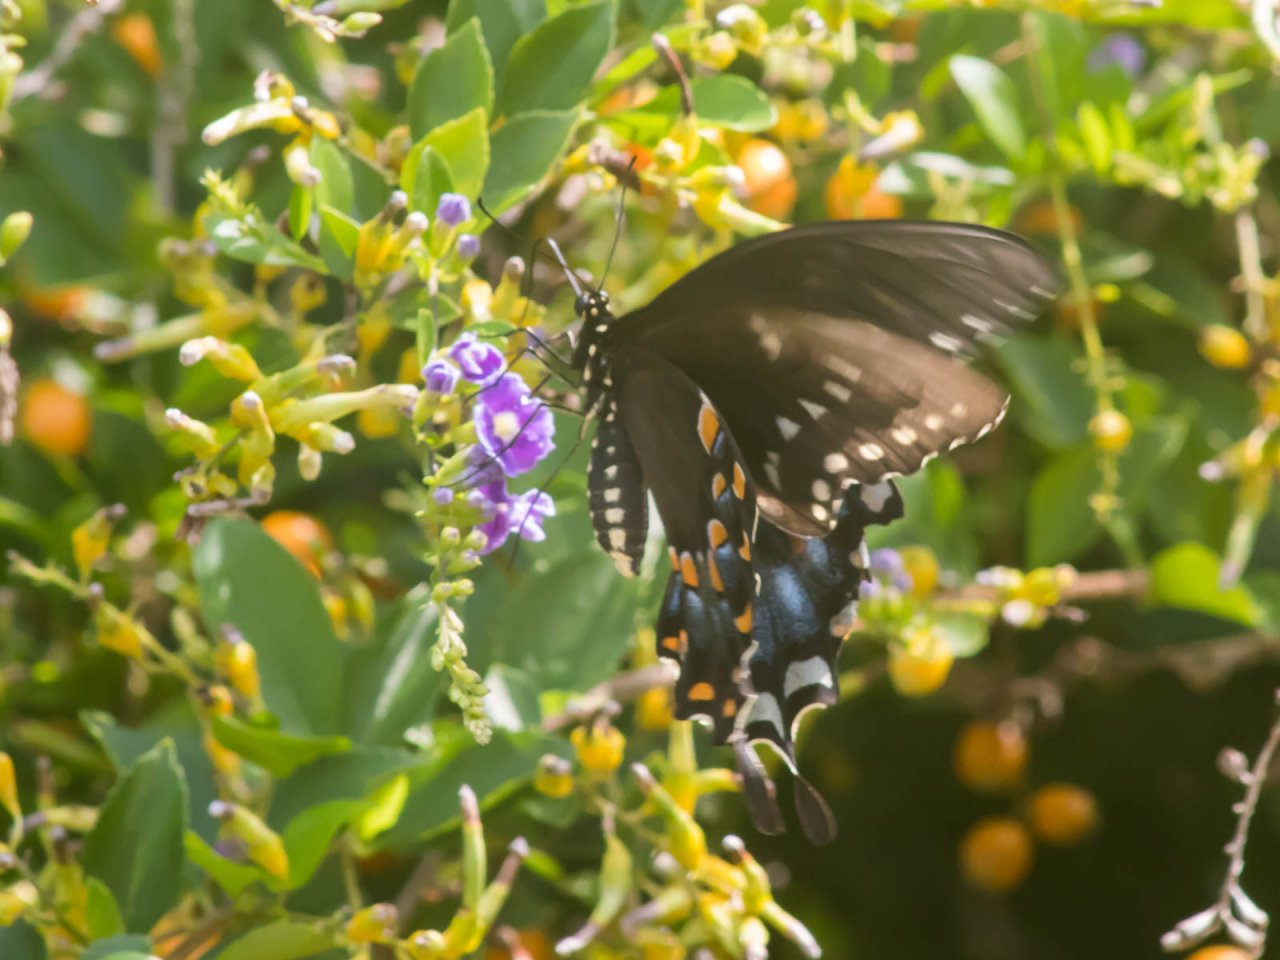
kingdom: Animalia
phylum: Arthropoda
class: Insecta
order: Lepidoptera
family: Papilionidae
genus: Pterourus
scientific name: Pterourus troilus
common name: Spicebush Swallowtail
